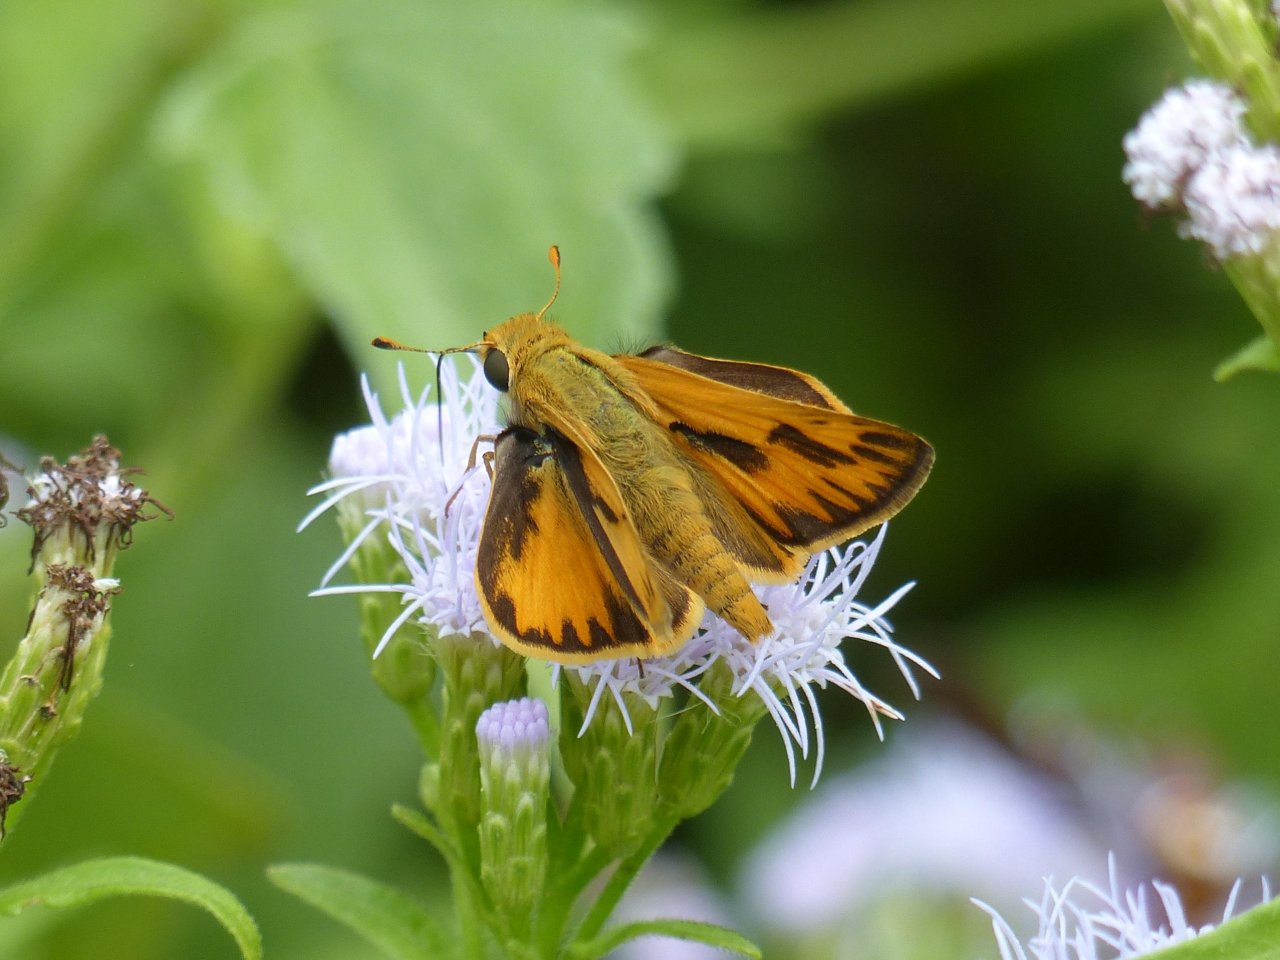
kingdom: Animalia
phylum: Arthropoda
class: Insecta
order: Lepidoptera
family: Hesperiidae
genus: Hylephila
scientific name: Hylephila phyleus
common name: Fiery Skipper
